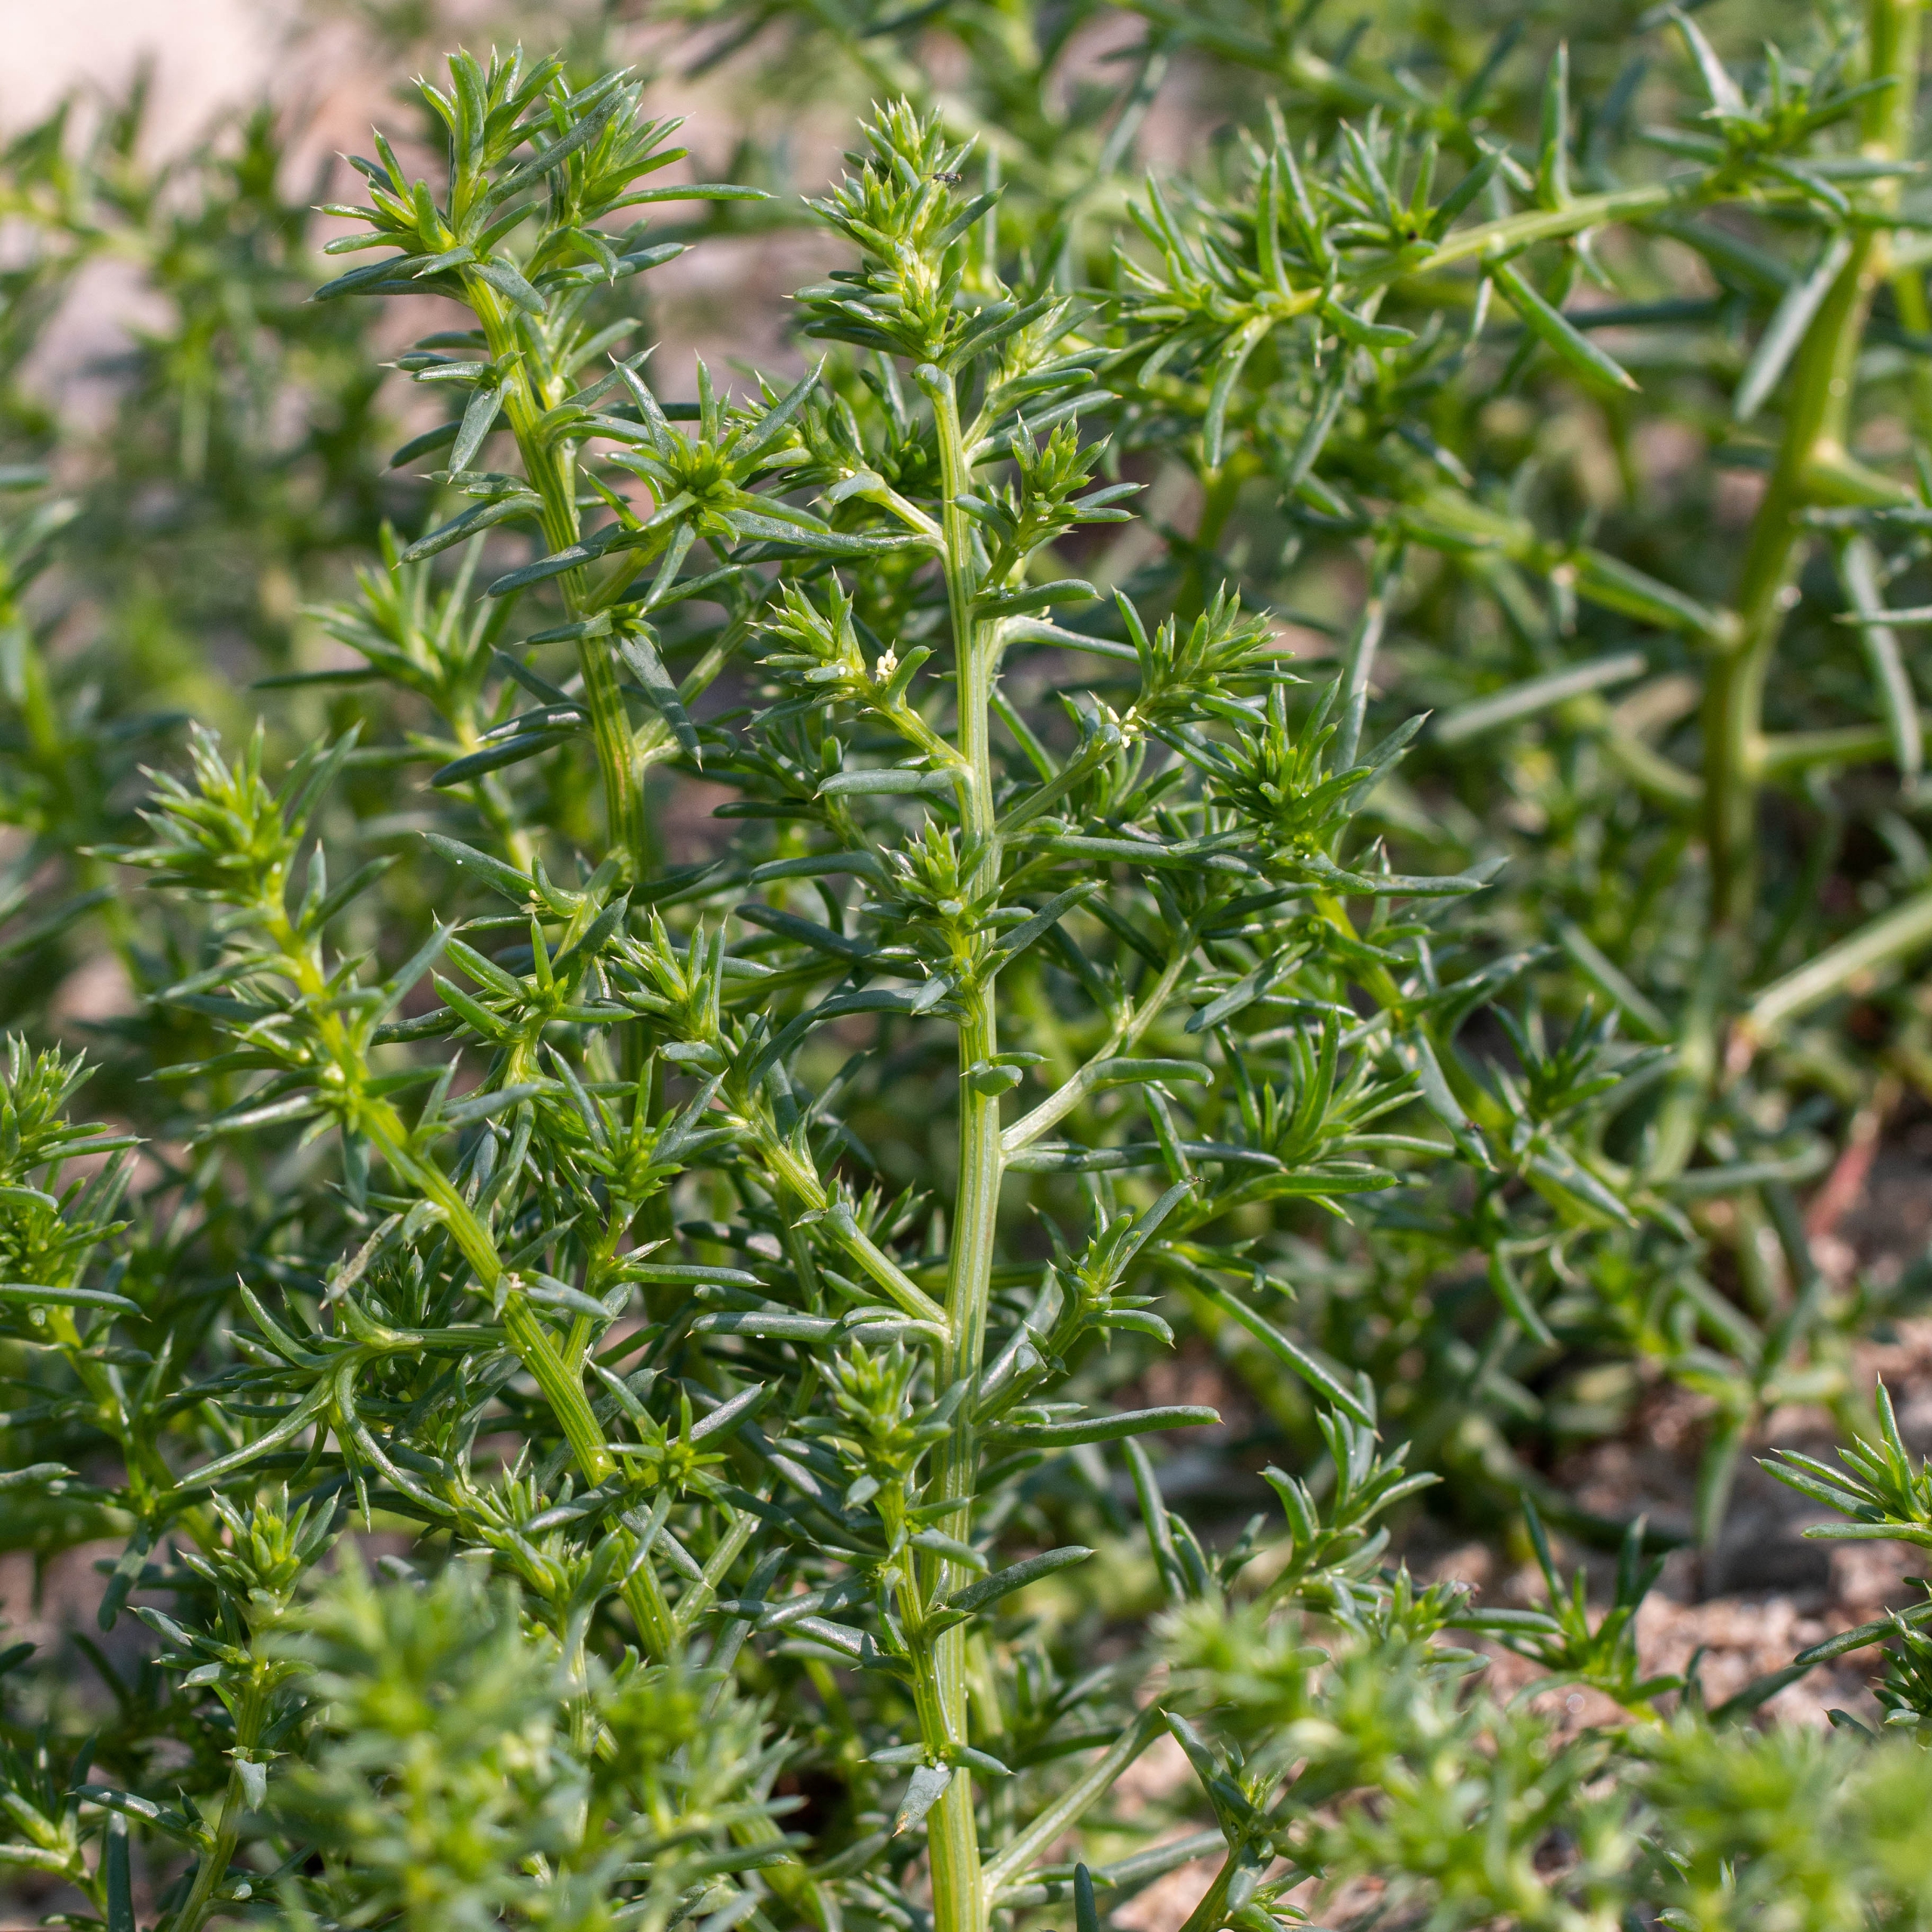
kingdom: Plantae
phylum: Tracheophyta
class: Magnoliopsida
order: Caryophyllales
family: Amaranthaceae
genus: Salsola
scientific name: Salsola kali
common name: Sodaurt
